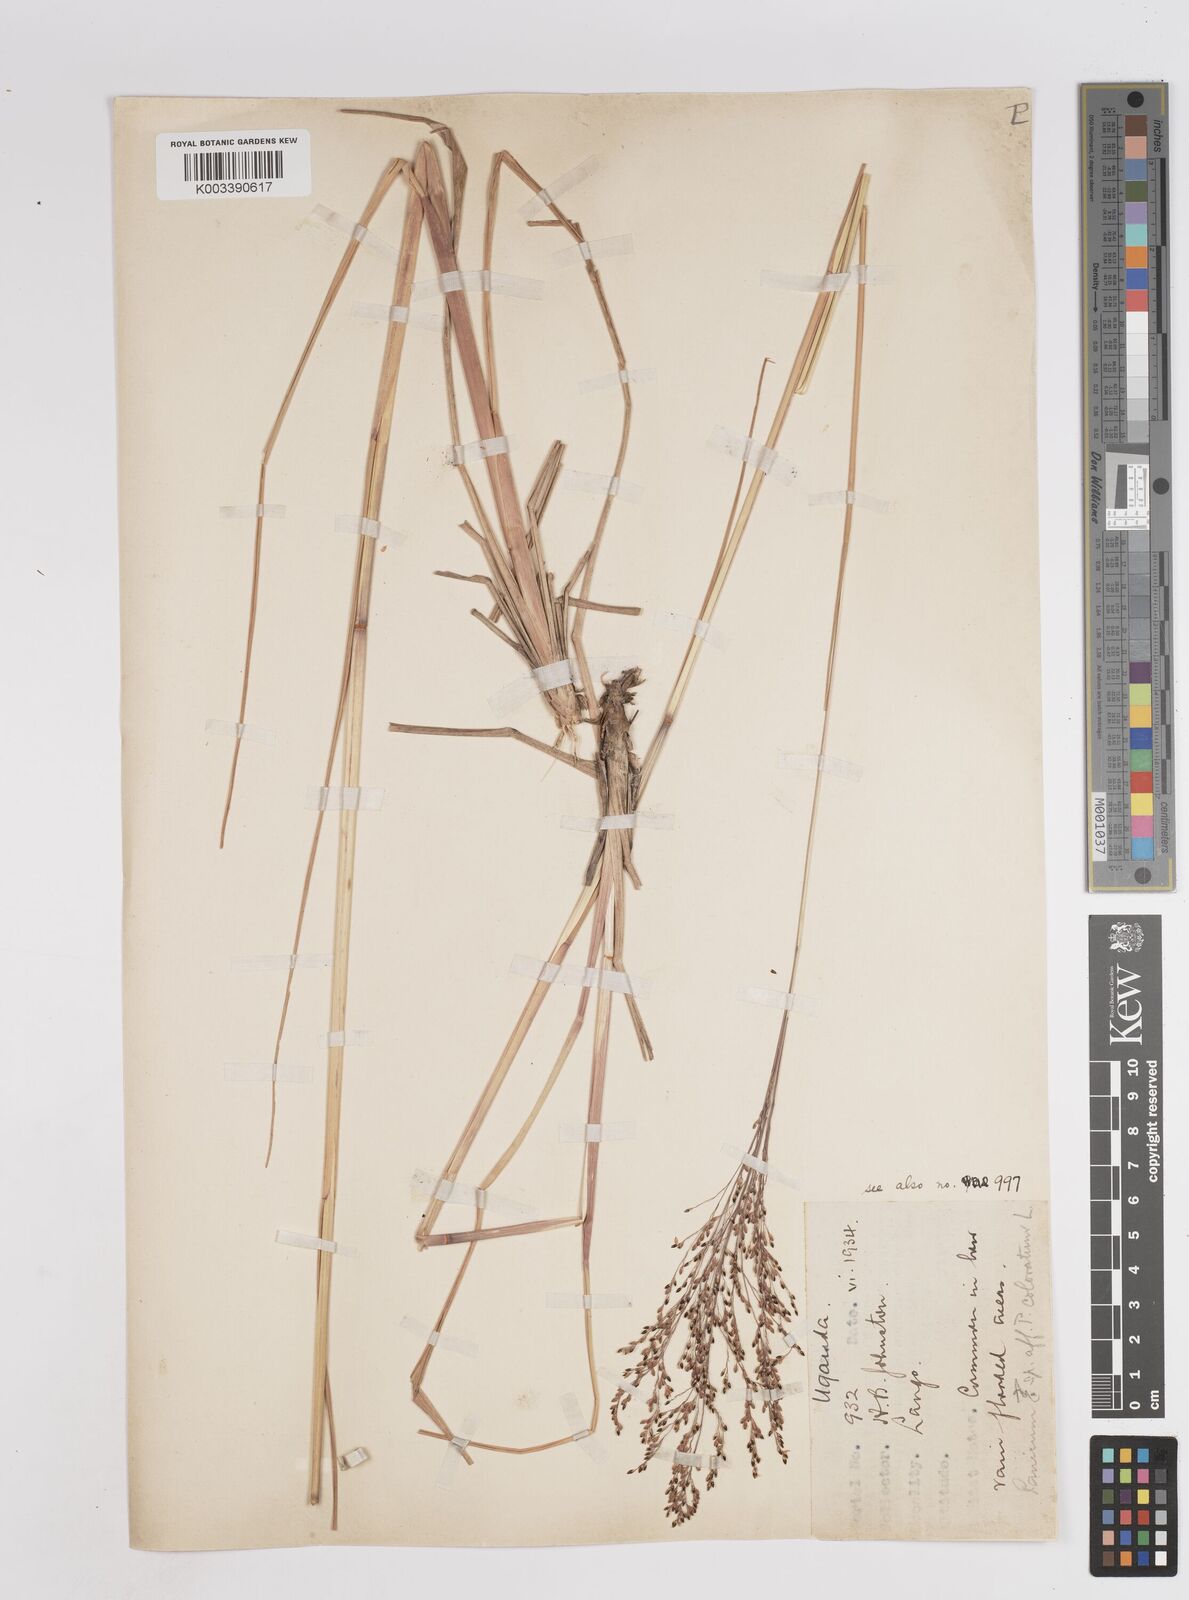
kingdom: Plantae
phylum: Tracheophyta
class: Liliopsida
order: Poales
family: Poaceae
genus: Panicum
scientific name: Panicum carneovaginatum
